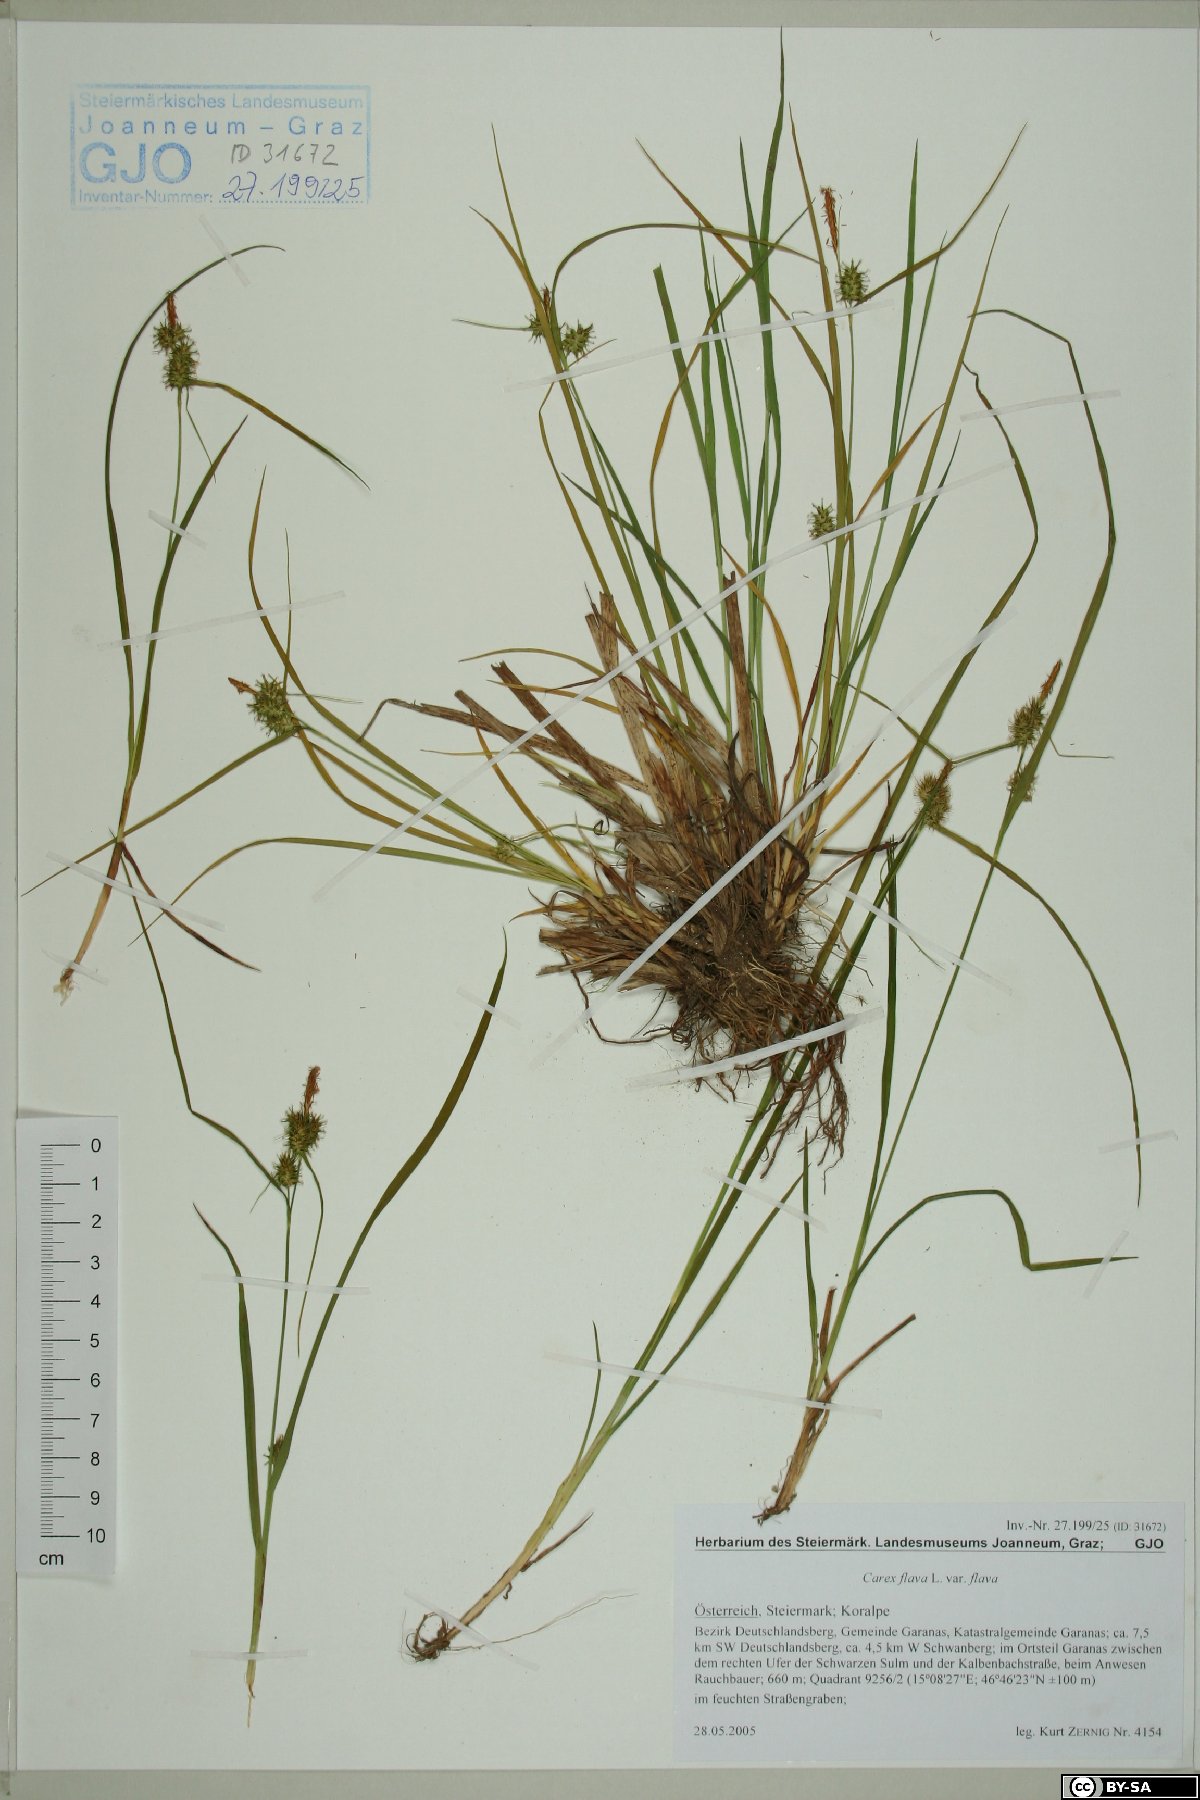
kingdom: Plantae
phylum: Tracheophyta
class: Liliopsida
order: Poales
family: Cyperaceae
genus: Carex
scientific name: Carex flava
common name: Large yellow-sedge
